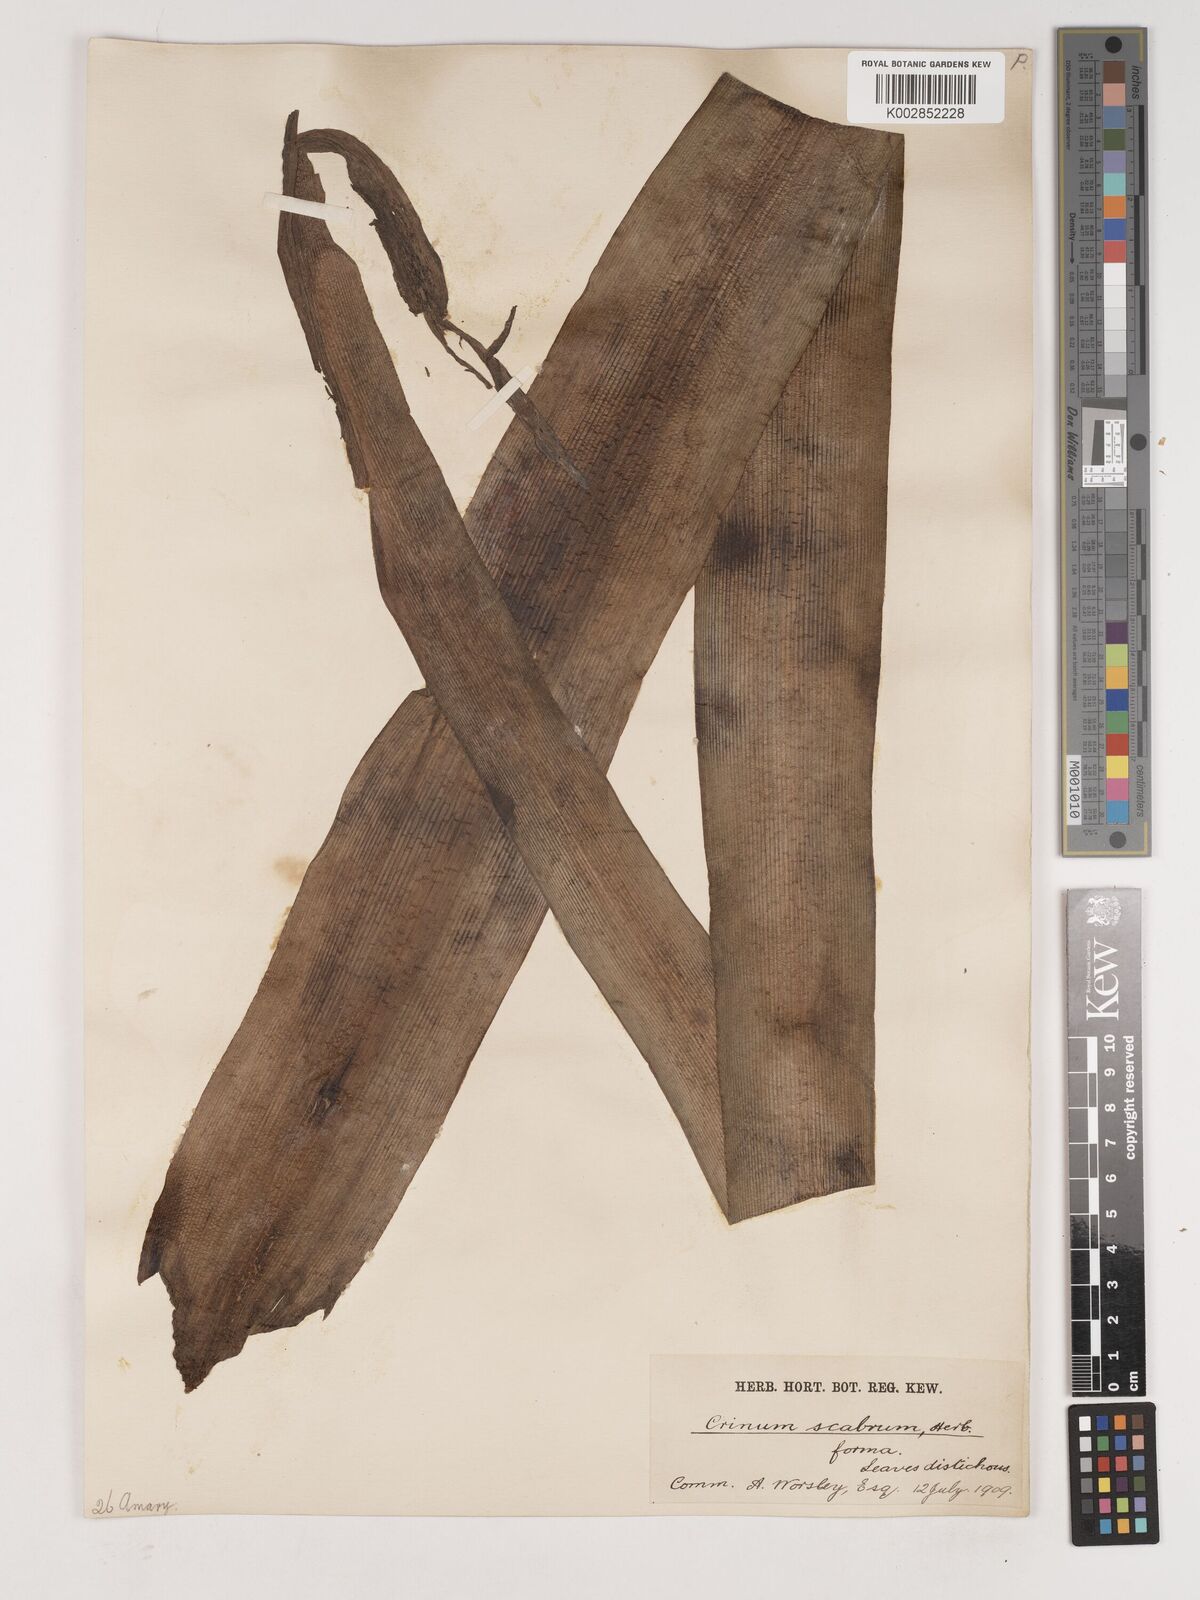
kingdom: Plantae
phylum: Tracheophyta
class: Liliopsida
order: Asparagales
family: Amaryllidaceae
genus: Crinum
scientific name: Crinum macowanii
